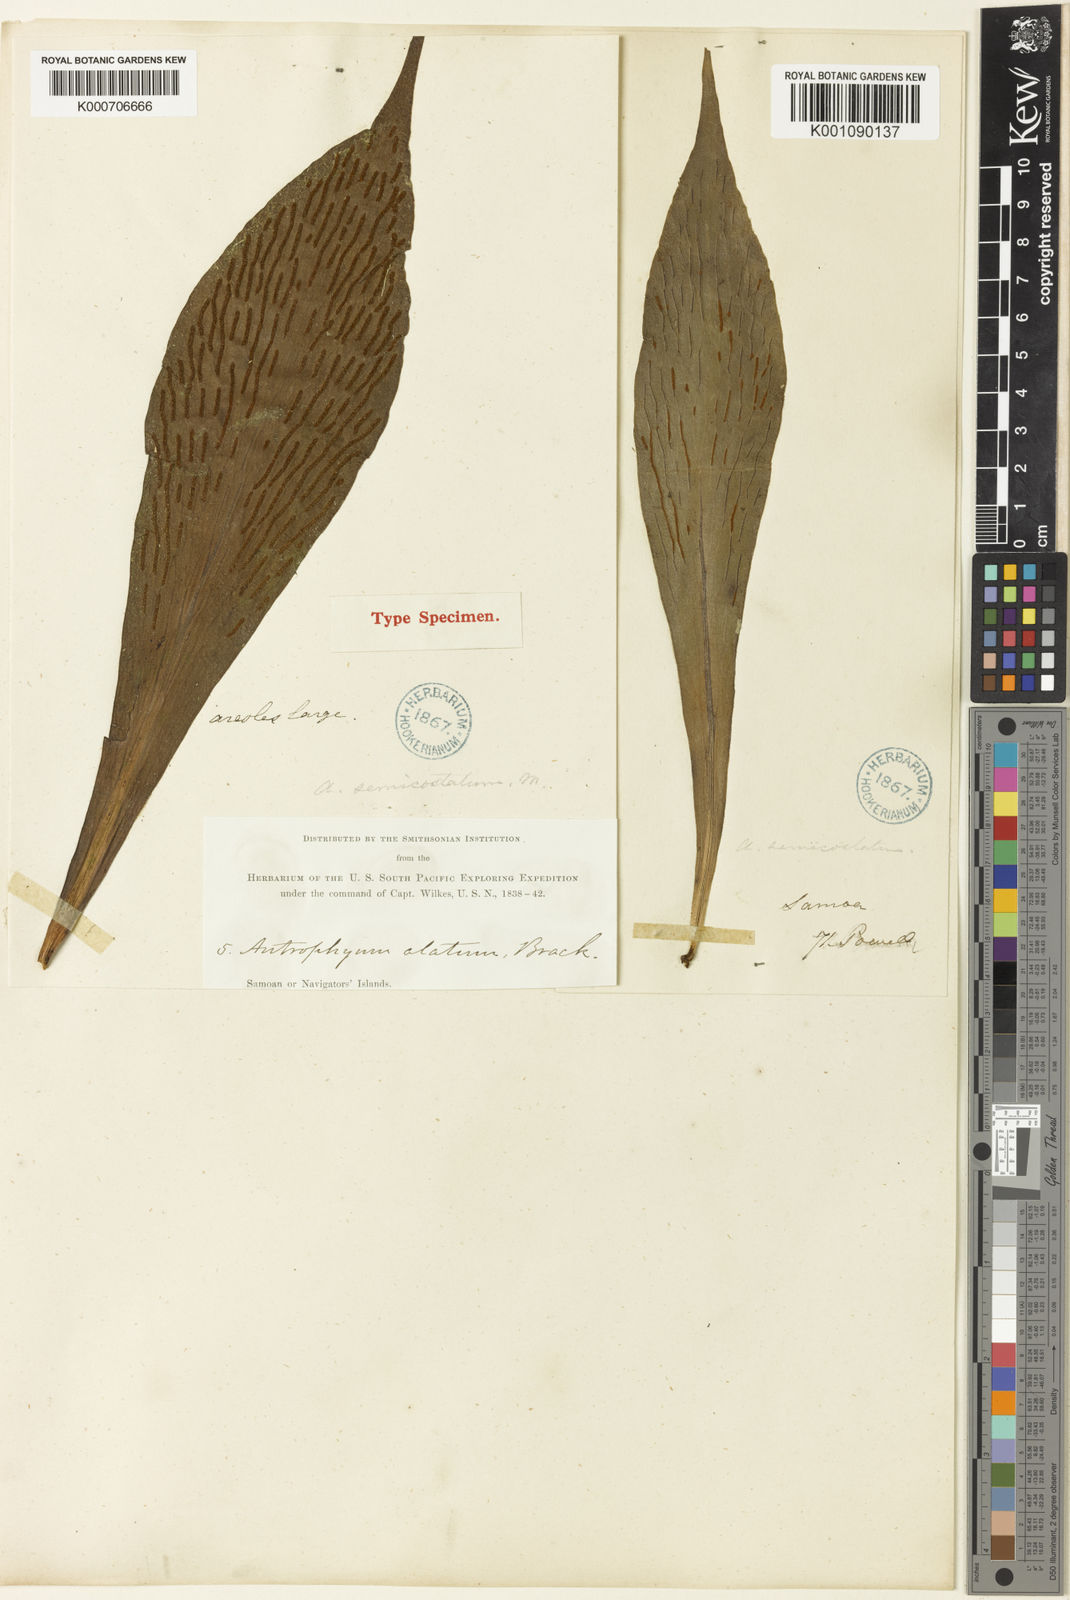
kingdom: Plantae
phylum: Tracheophyta
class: Polypodiopsida
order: Polypodiales
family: Pteridaceae
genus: Antrophyum
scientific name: Antrophyum callifolium
